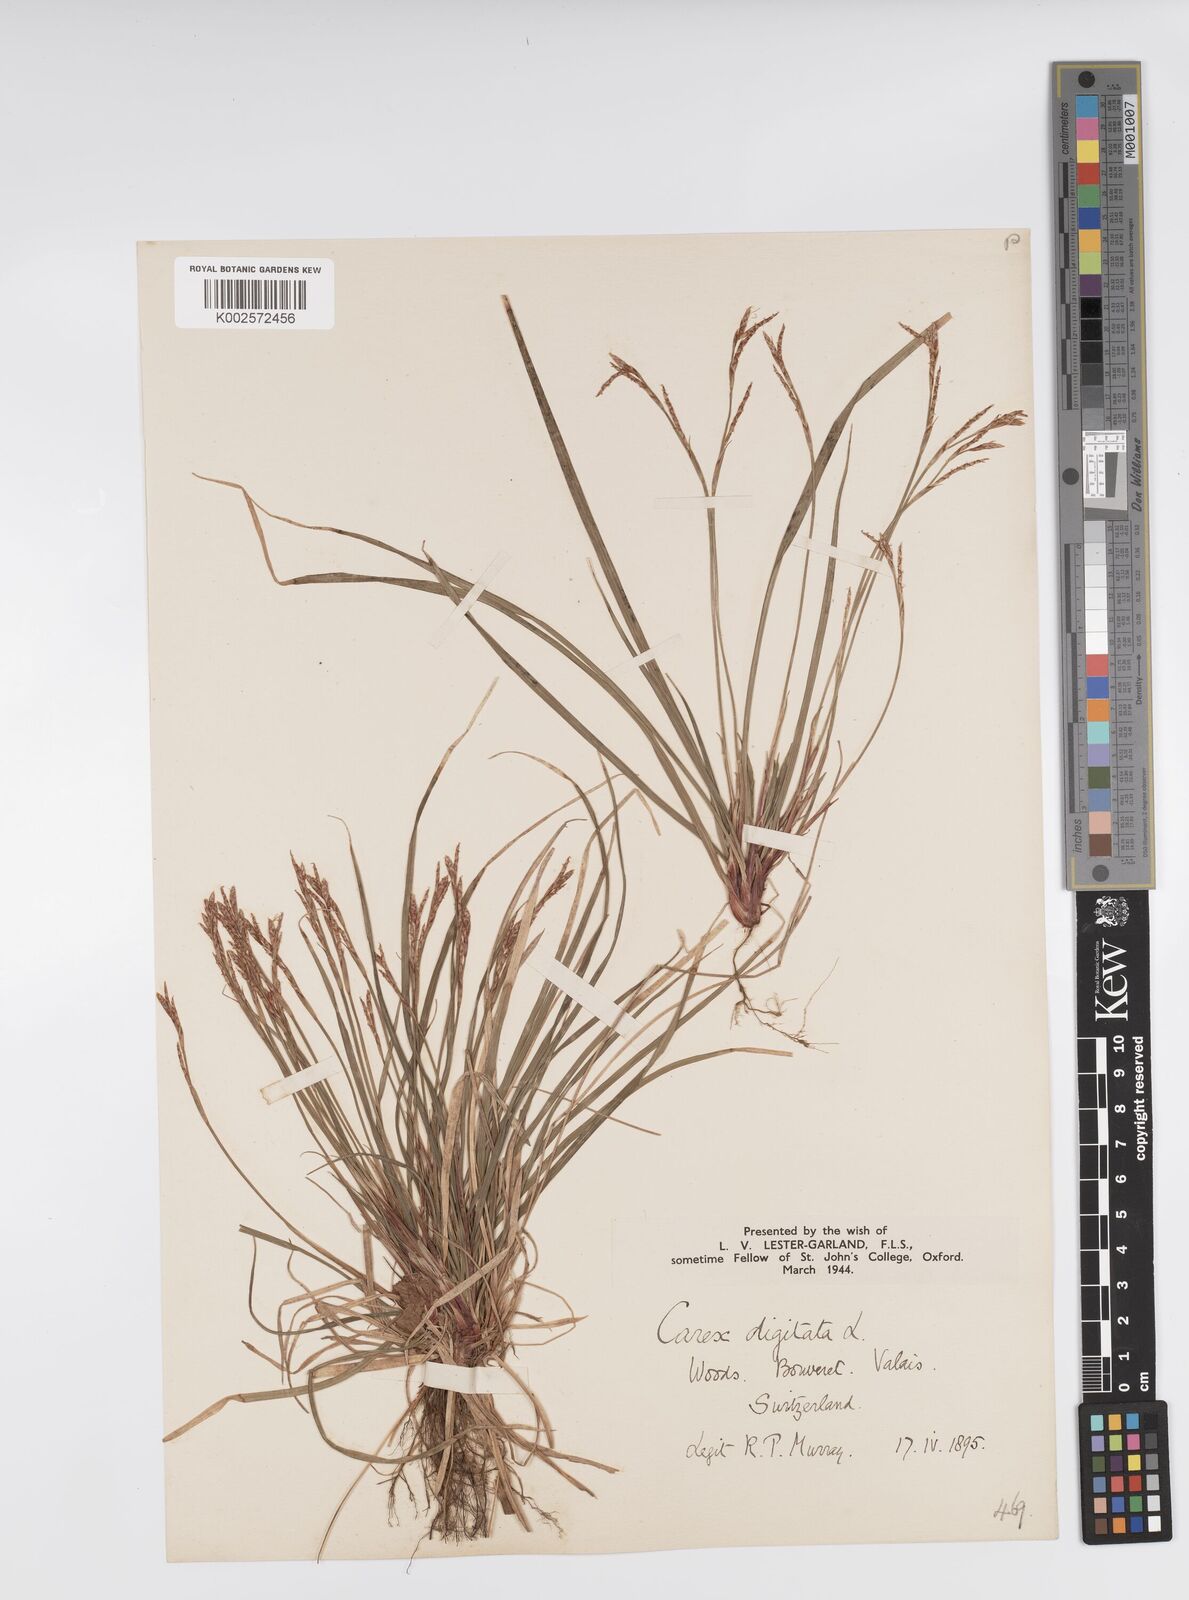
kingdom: Plantae
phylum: Tracheophyta
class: Liliopsida
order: Poales
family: Cyperaceae
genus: Carex
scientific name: Carex digitata
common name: Fingered sedge
